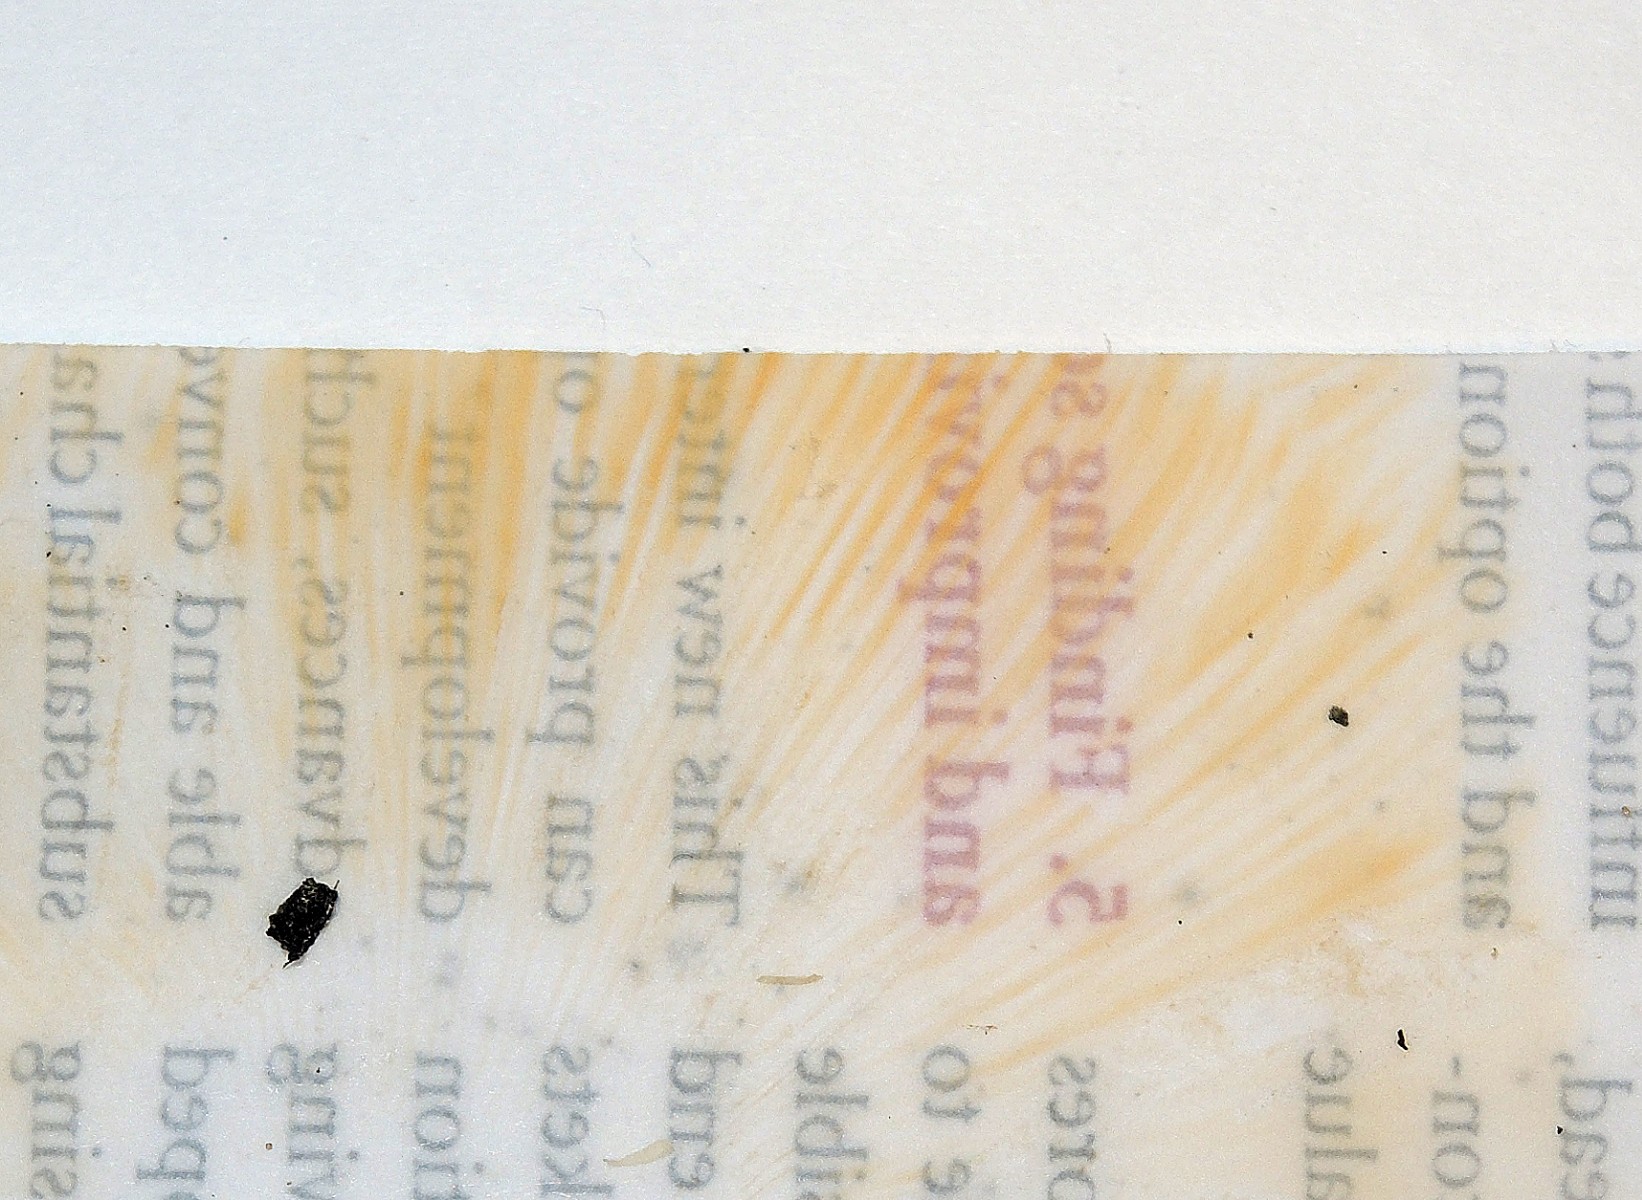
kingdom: Fungi
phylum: Basidiomycota
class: Agaricomycetes
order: Russulales
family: Russulaceae
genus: Russula
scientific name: Russula pseudointegra
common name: cinnoberrød skørhat
